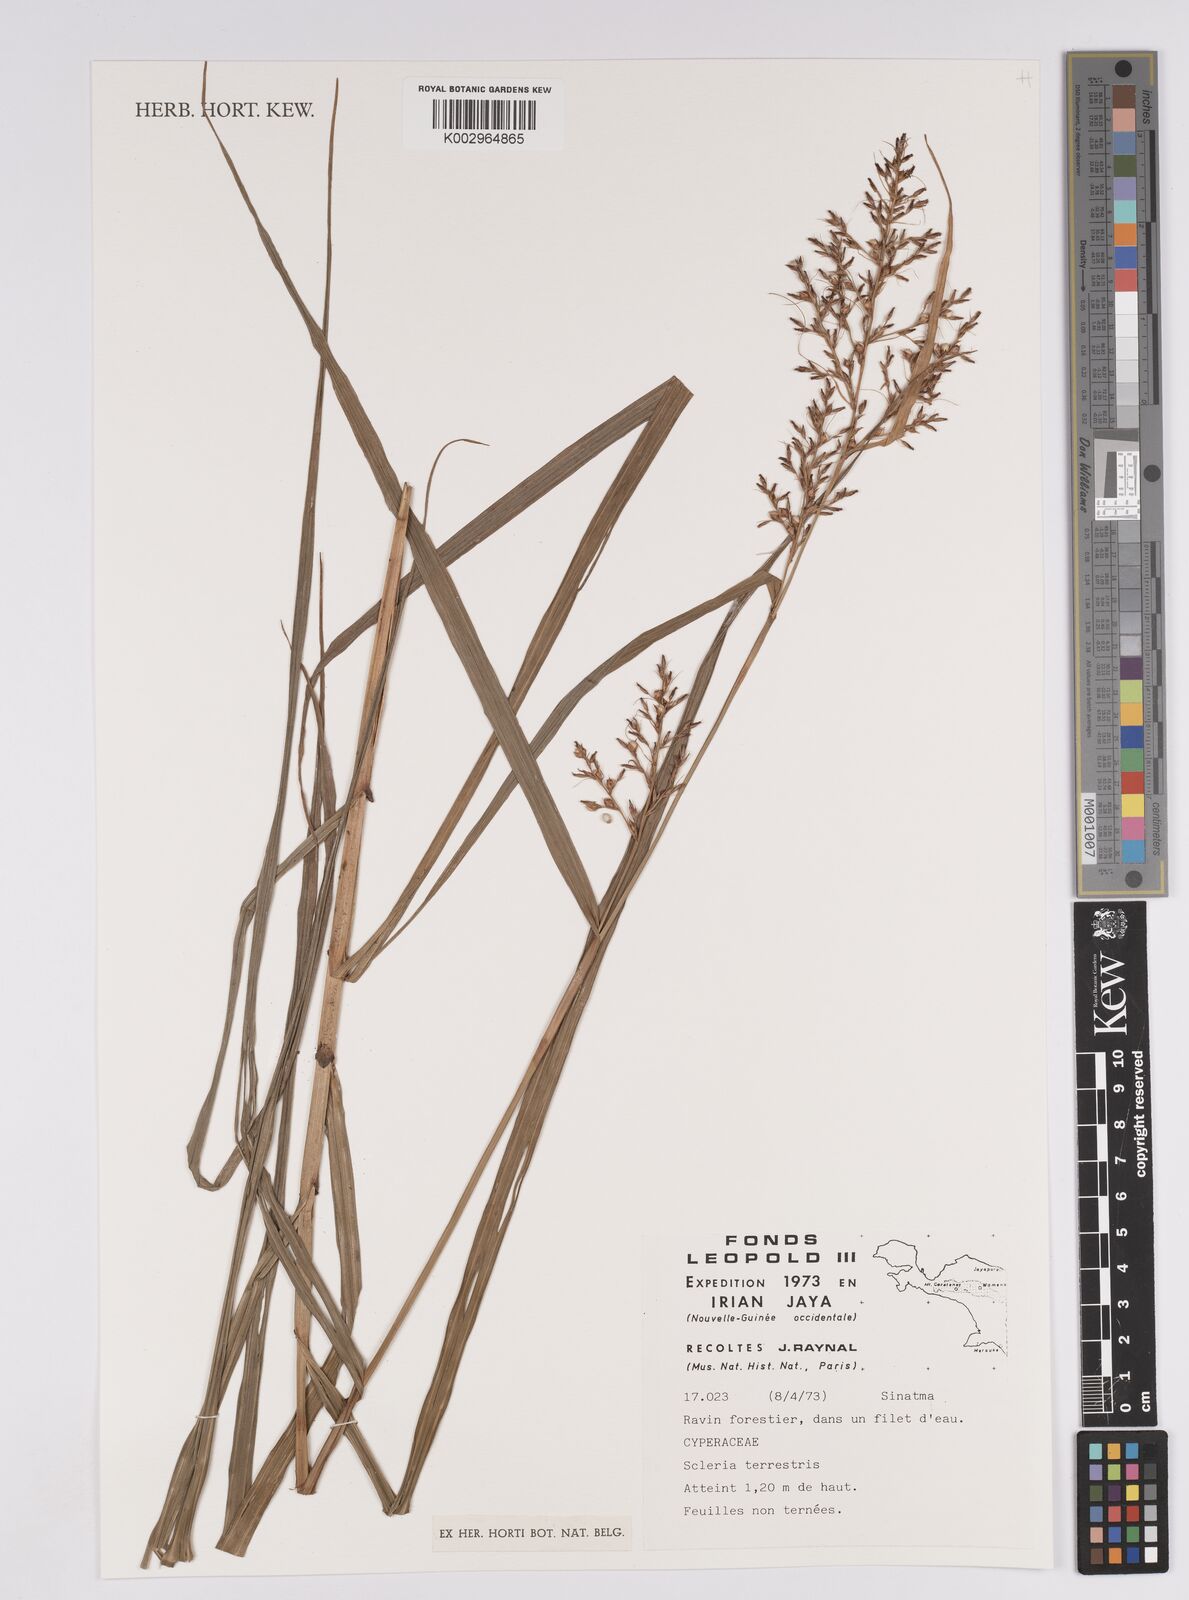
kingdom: Plantae
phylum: Tracheophyta
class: Liliopsida
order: Poales
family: Cyperaceae
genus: Scleria
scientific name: Scleria terrestris
